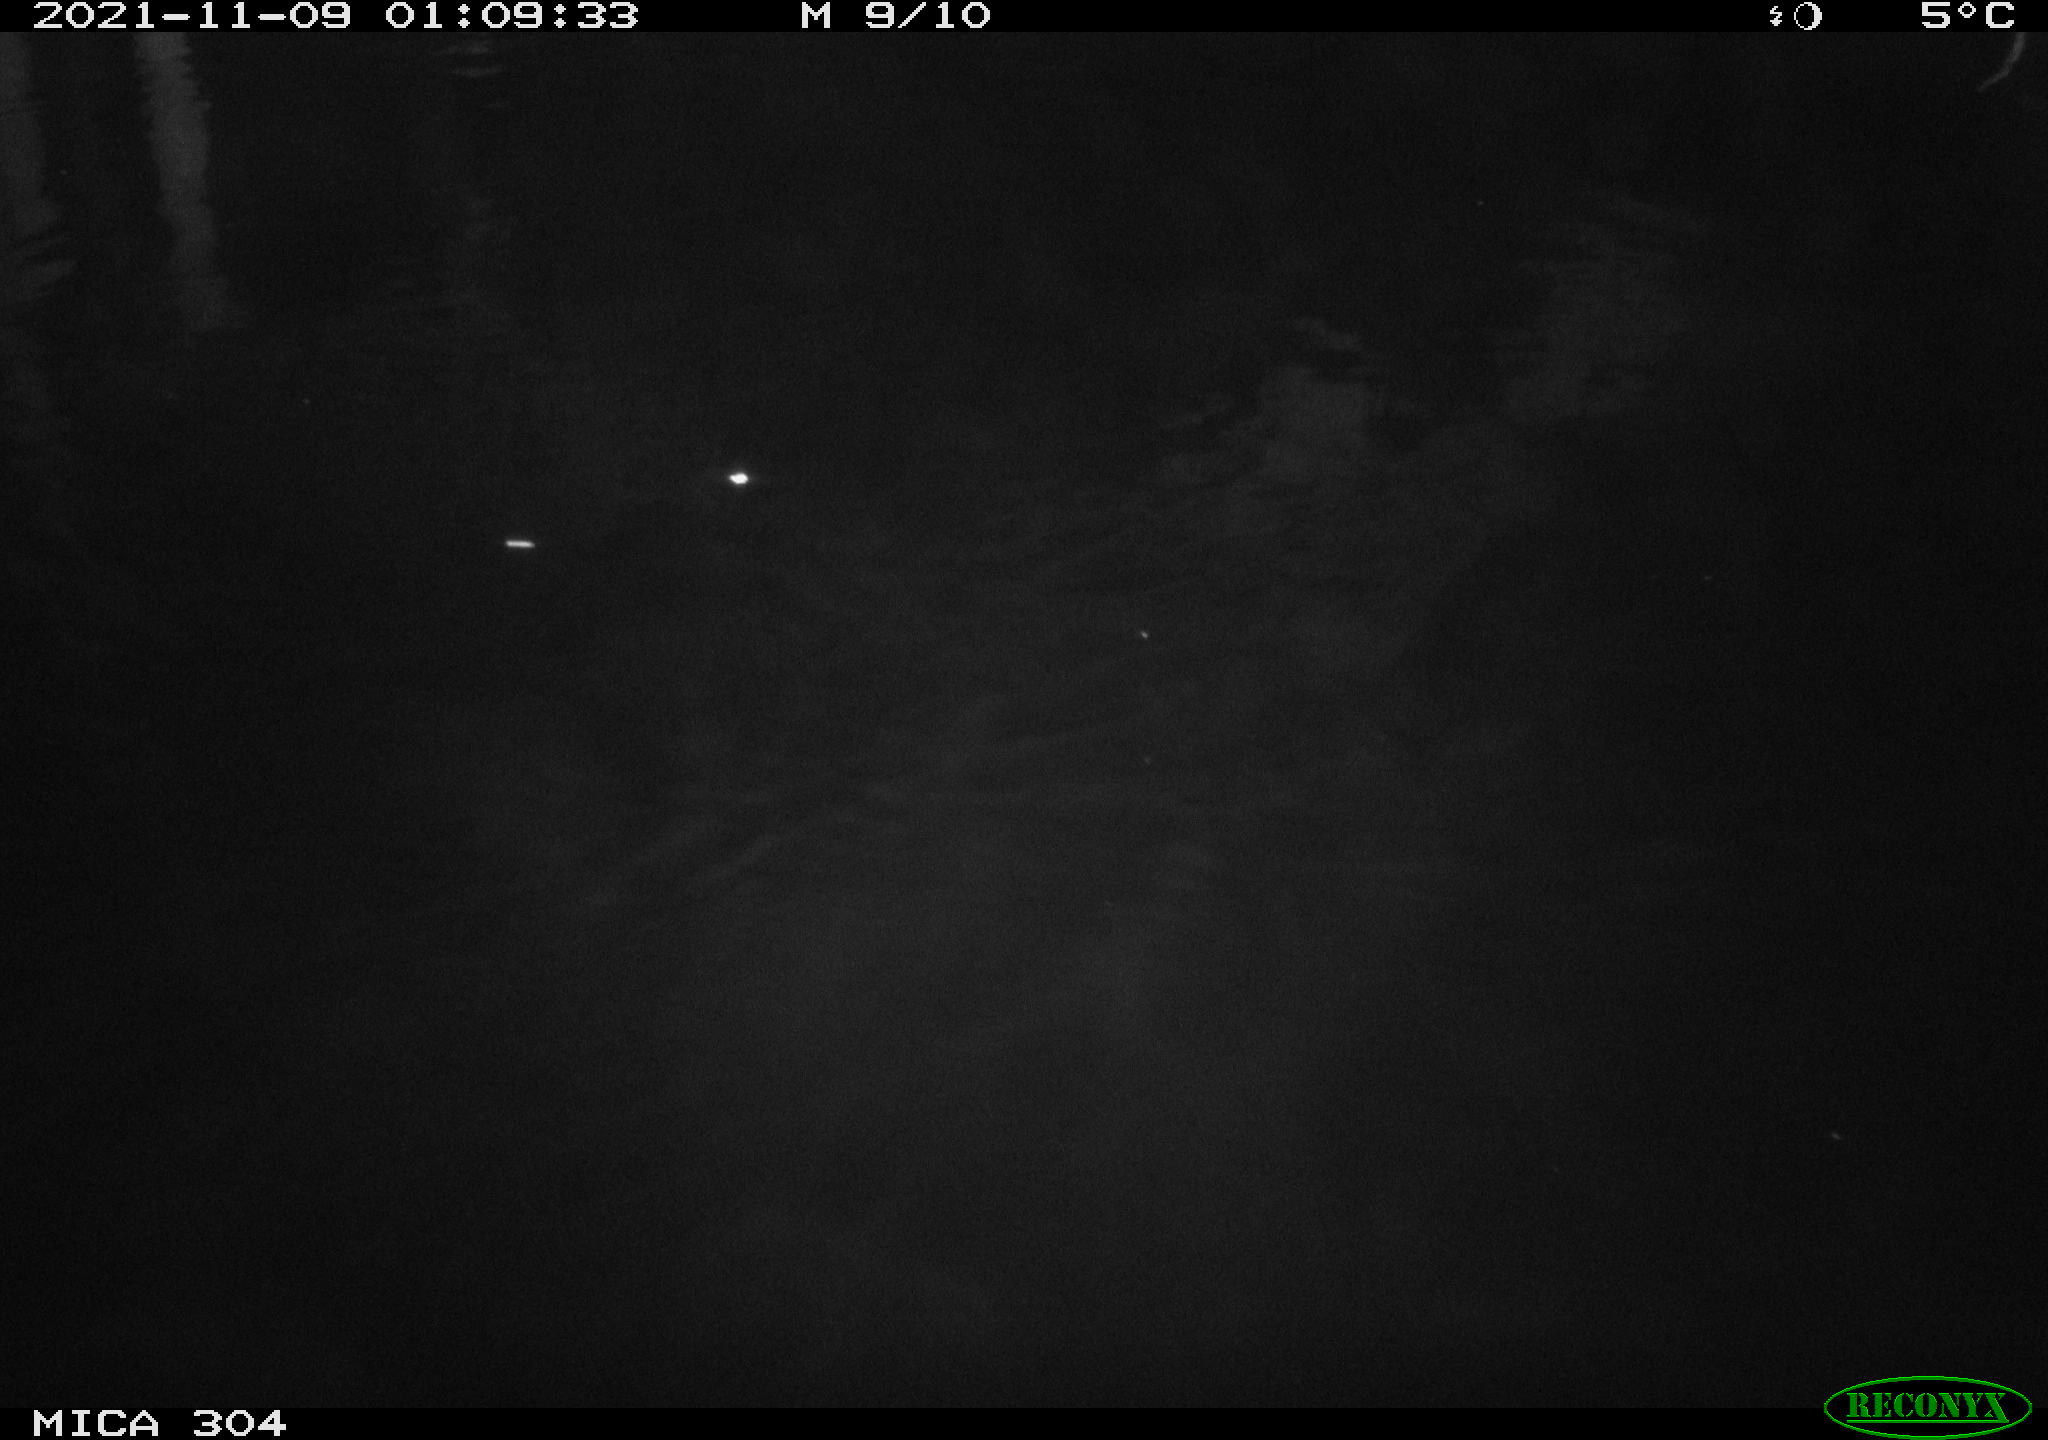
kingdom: Animalia
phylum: Chordata
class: Mammalia
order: Rodentia
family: Muridae
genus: Rattus
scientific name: Rattus norvegicus
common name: Brown rat
